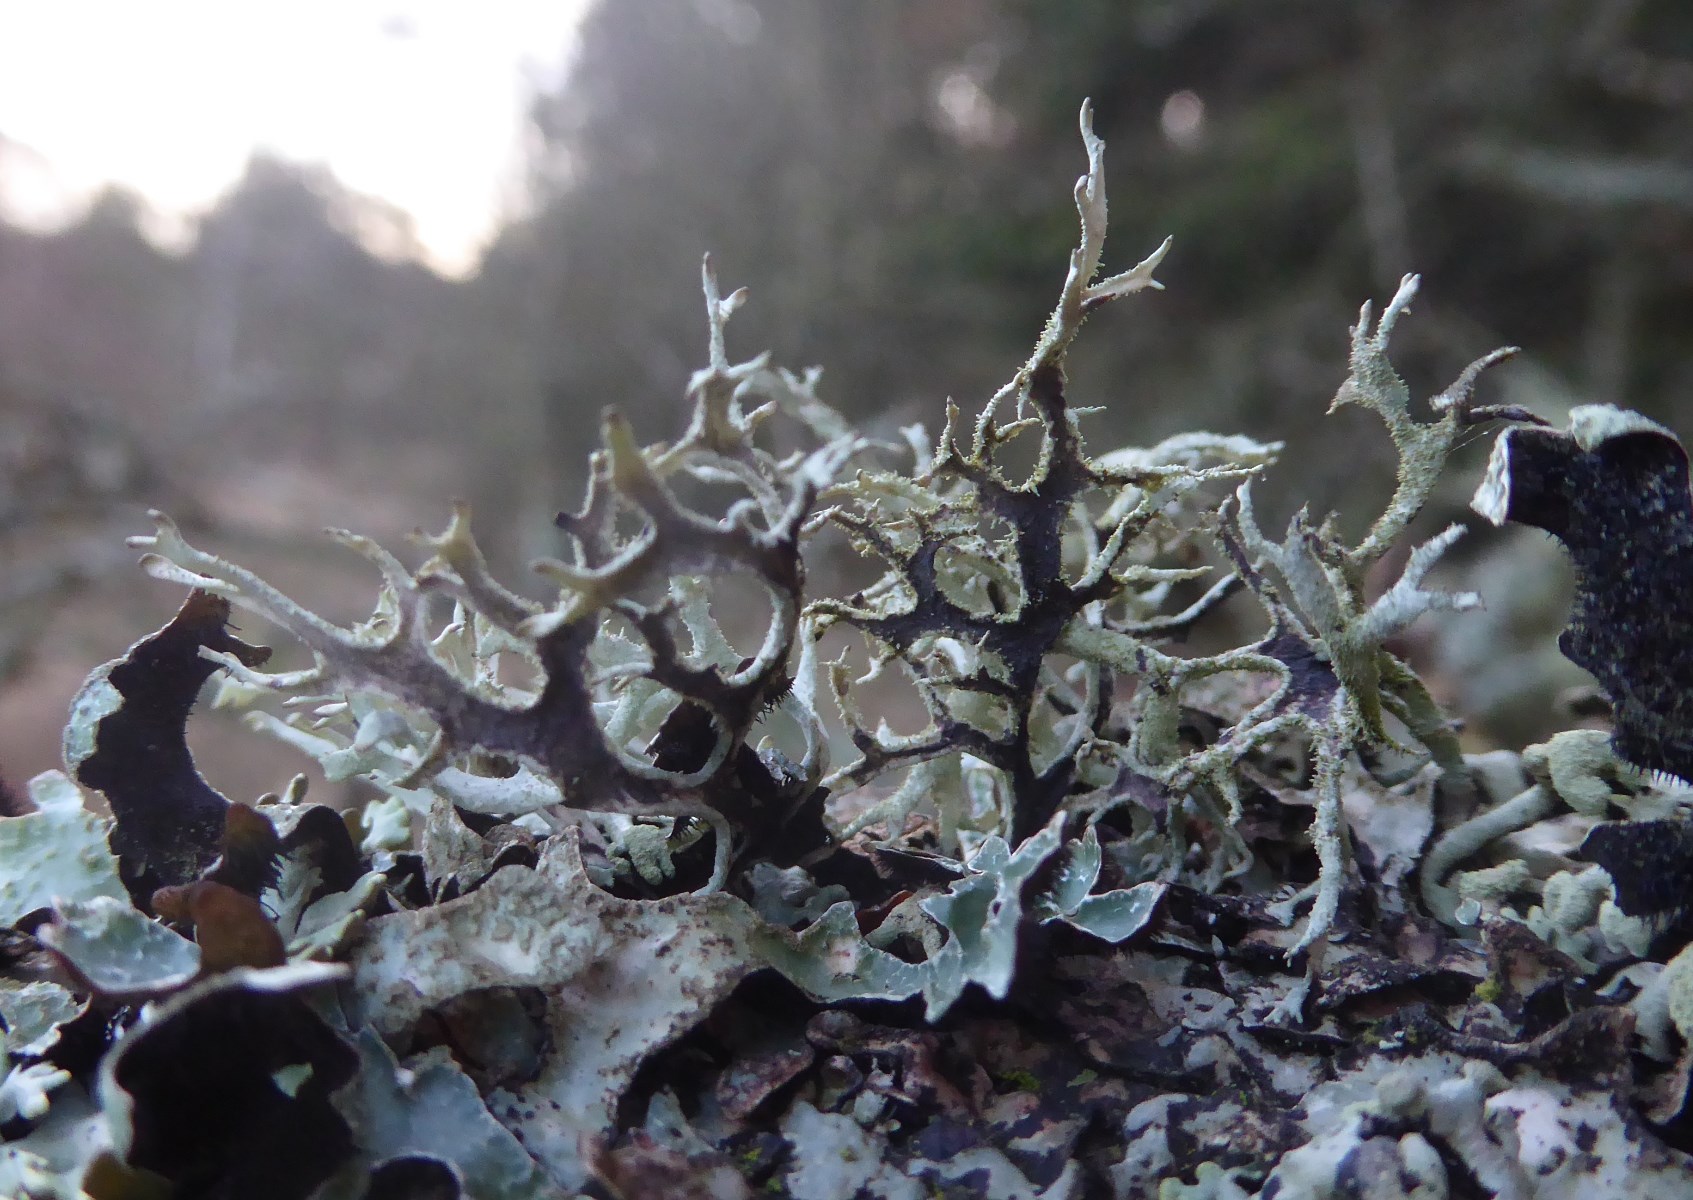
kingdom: Fungi
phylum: Ascomycota
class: Lecanoromycetes
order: Lecanorales
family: Parmeliaceae
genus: Pseudevernia
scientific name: Pseudevernia furfuracea
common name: grå fyrrelav
